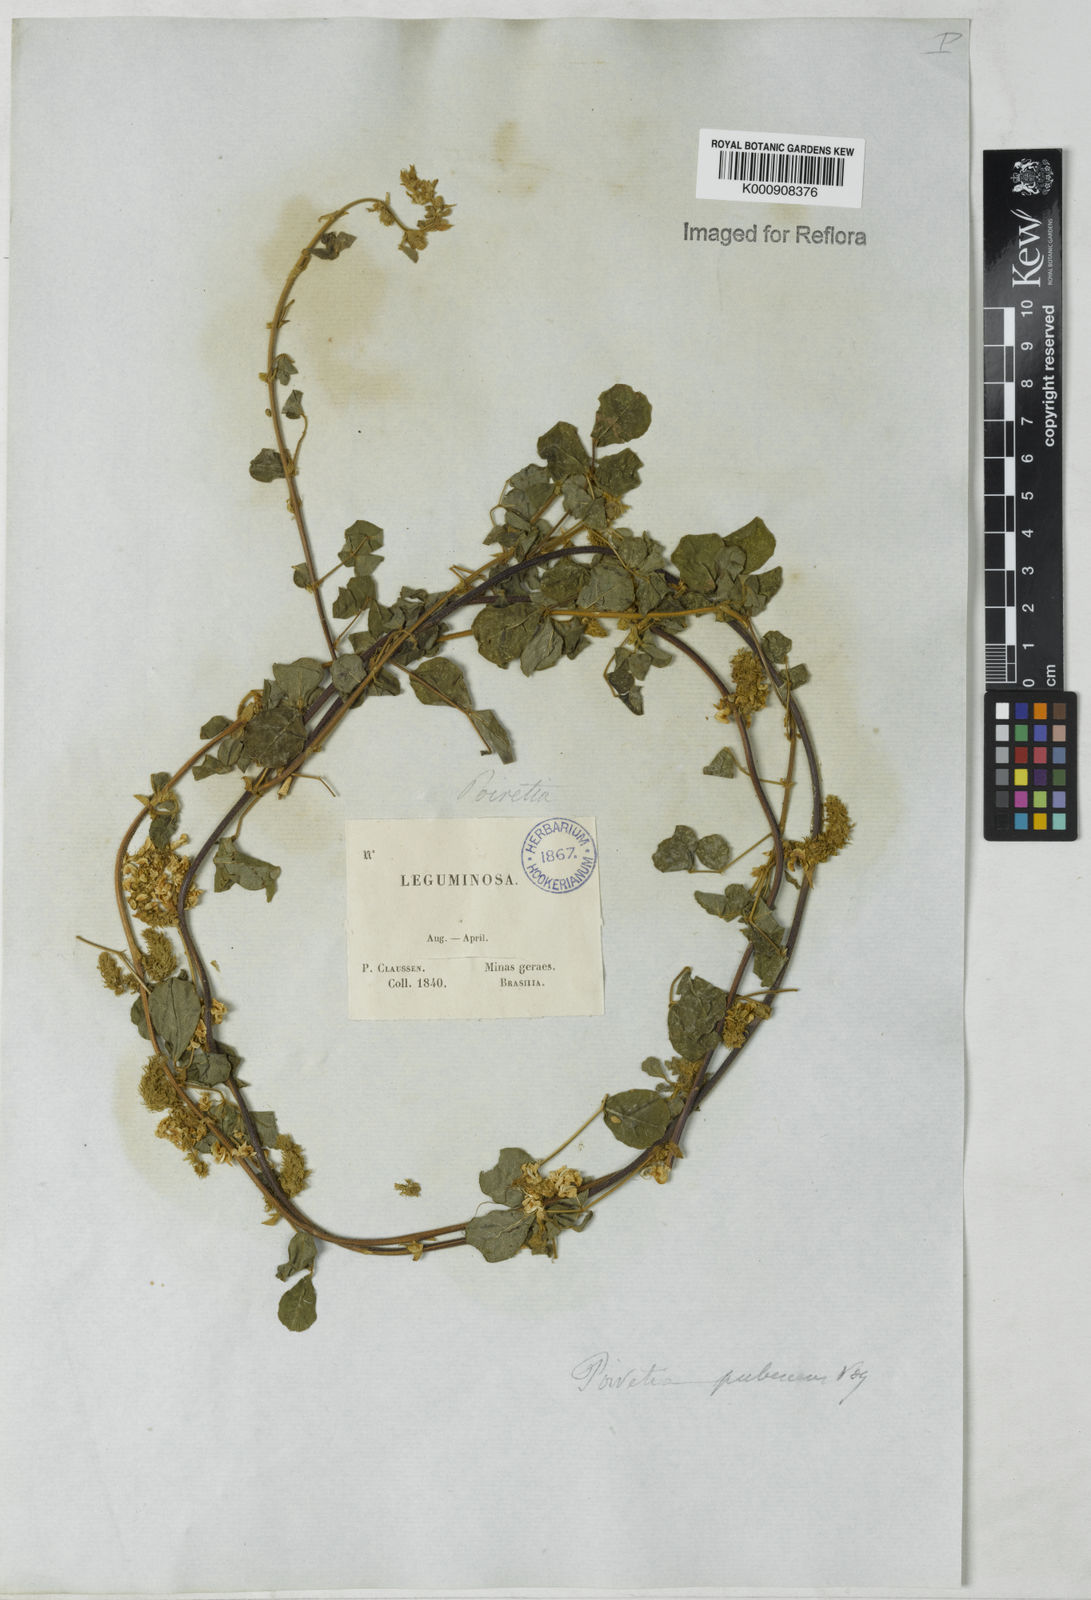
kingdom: Plantae
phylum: Tracheophyta
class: Magnoliopsida
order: Fabales
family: Fabaceae
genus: Poiretia
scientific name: Poiretia punctata
